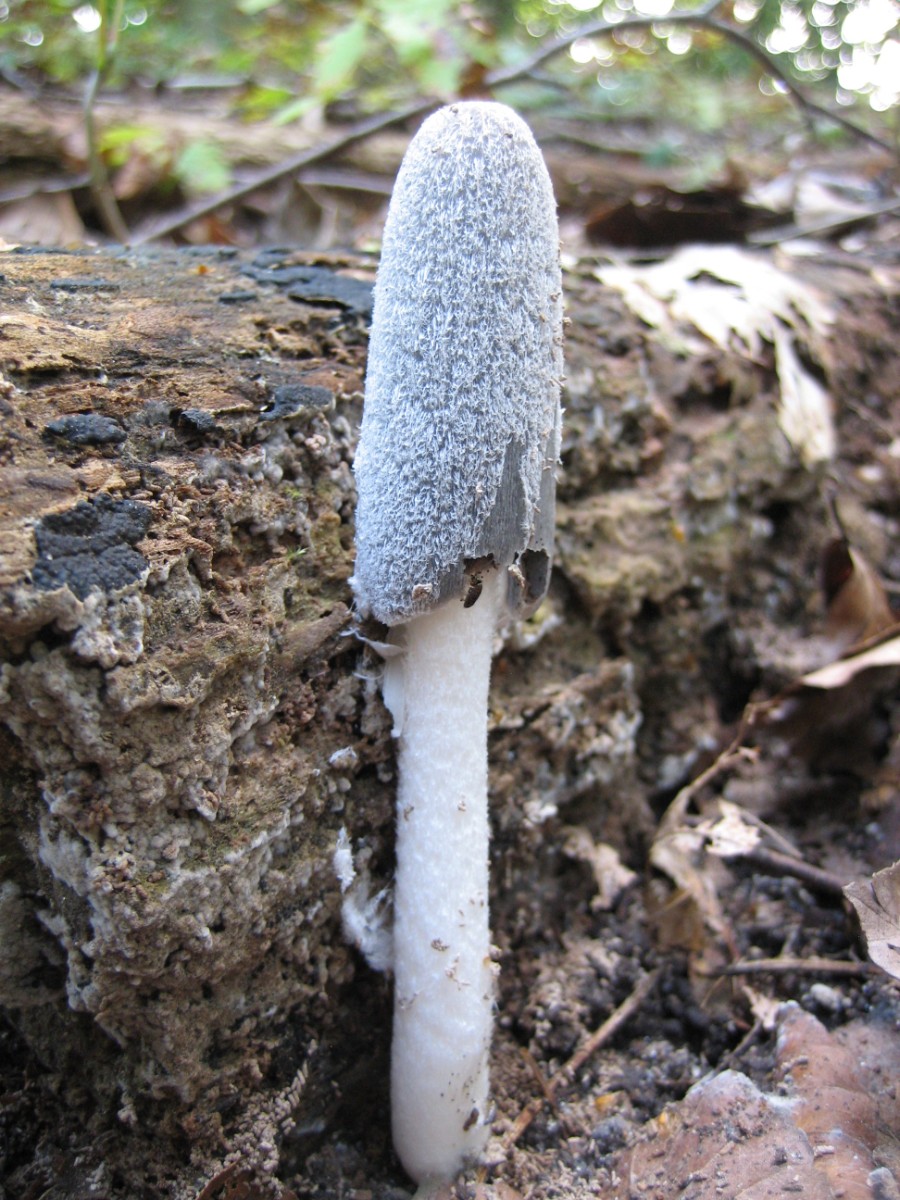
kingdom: Fungi
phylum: Basidiomycota
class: Agaricomycetes
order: Agaricales
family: Psathyrellaceae
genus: Coprinopsis
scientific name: Coprinopsis lagopus
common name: dunstokket blækhat
